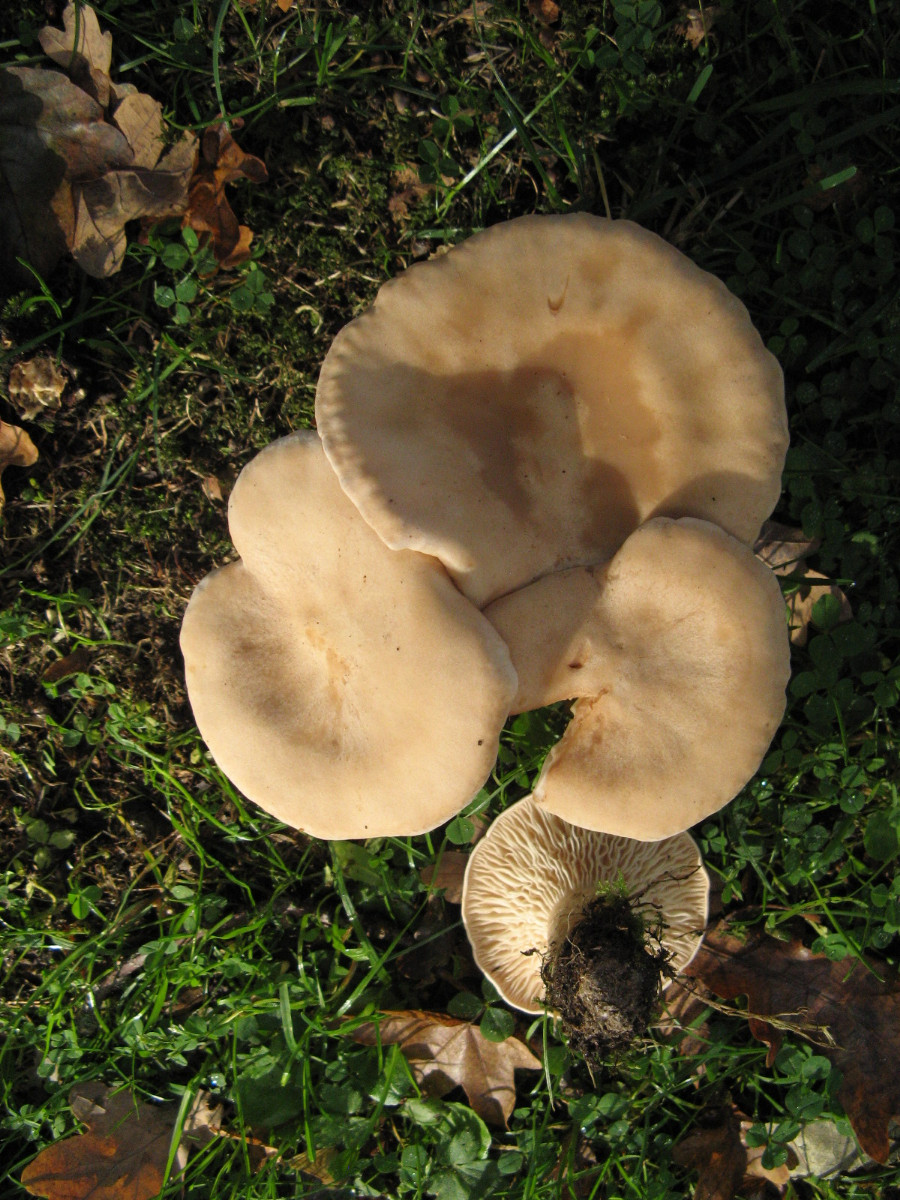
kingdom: Fungi
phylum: Basidiomycota
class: Agaricomycetes
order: Agaricales
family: Tricholomataceae
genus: Infundibulicybe
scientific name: Infundibulicybe geotropa
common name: stor tragthat
